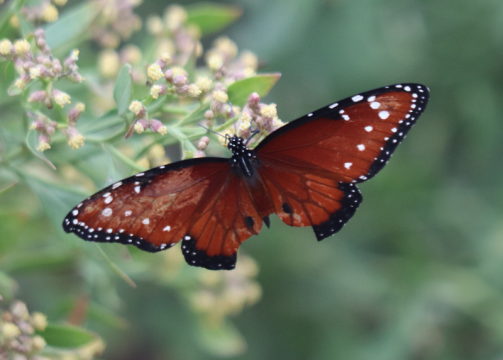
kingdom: Animalia
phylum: Arthropoda
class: Insecta
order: Lepidoptera
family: Nymphalidae
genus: Danaus
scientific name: Danaus gilippus
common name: Queen
